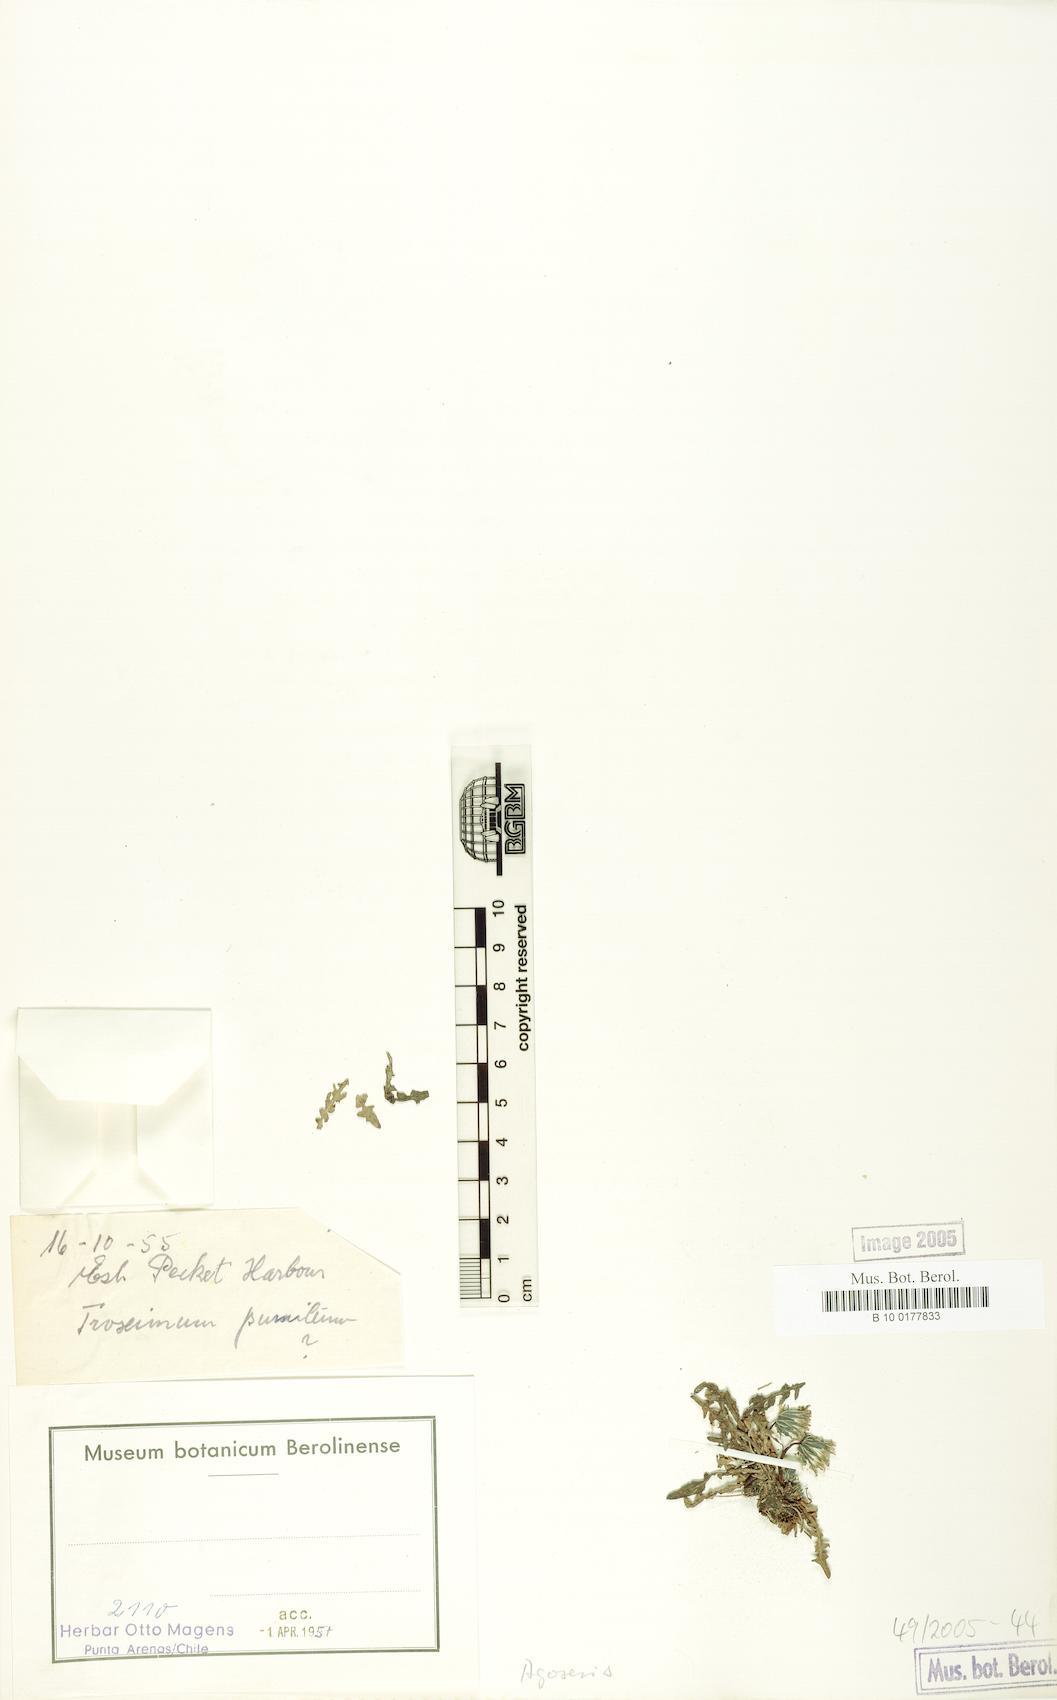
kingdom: Plantae
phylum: Tracheophyta
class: Magnoliopsida
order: Asterales
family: Asteraceae
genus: Agoseris
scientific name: Agoseris glauca
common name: Prairie agoseris
